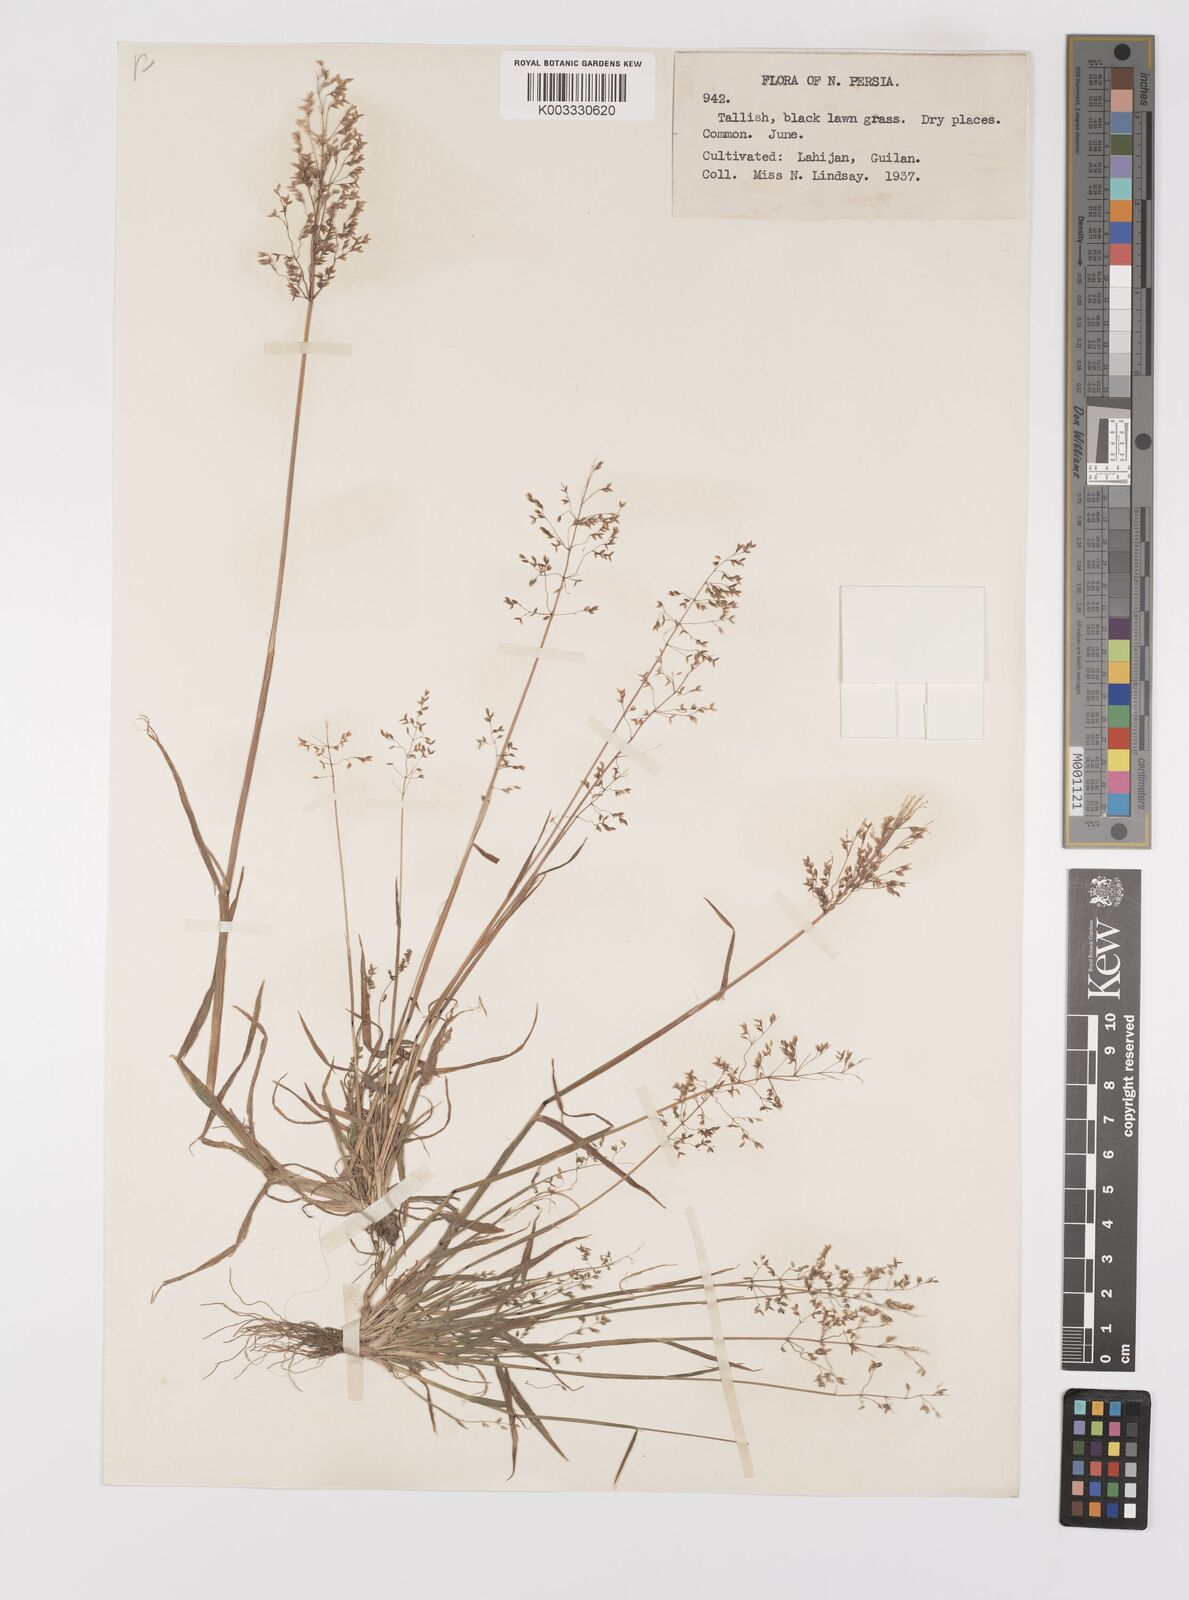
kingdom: Plantae
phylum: Tracheophyta
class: Liliopsida
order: Poales
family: Poaceae
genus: Milium
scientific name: Milium vernale
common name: Early millet
